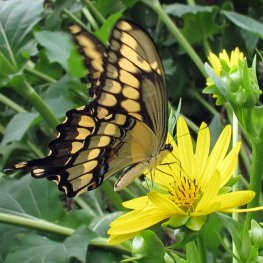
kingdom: Animalia
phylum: Arthropoda
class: Insecta
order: Lepidoptera
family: Papilionidae
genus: Papilio
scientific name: Papilio cresphontes
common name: Eastern Giant Swallowtail
